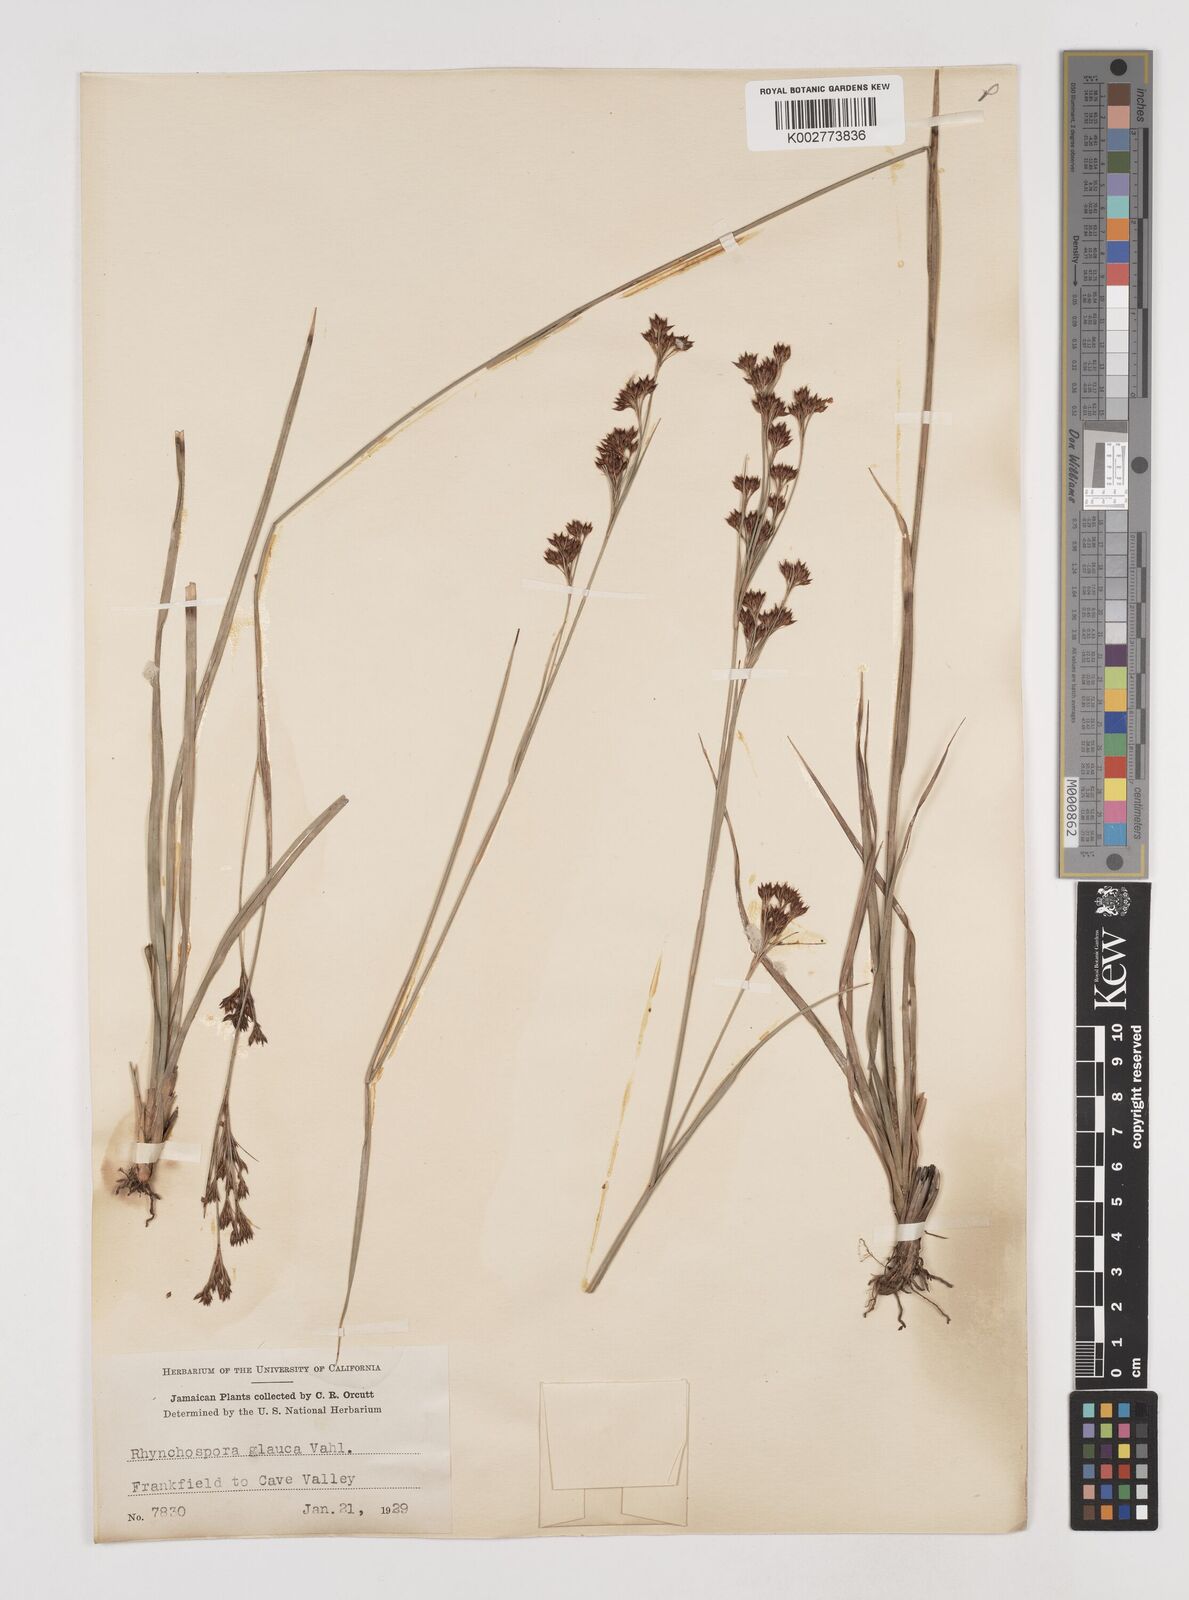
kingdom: Plantae
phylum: Tracheophyta
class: Liliopsida
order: Poales
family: Cyperaceae
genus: Rhynchospora
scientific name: Rhynchospora rugosa
